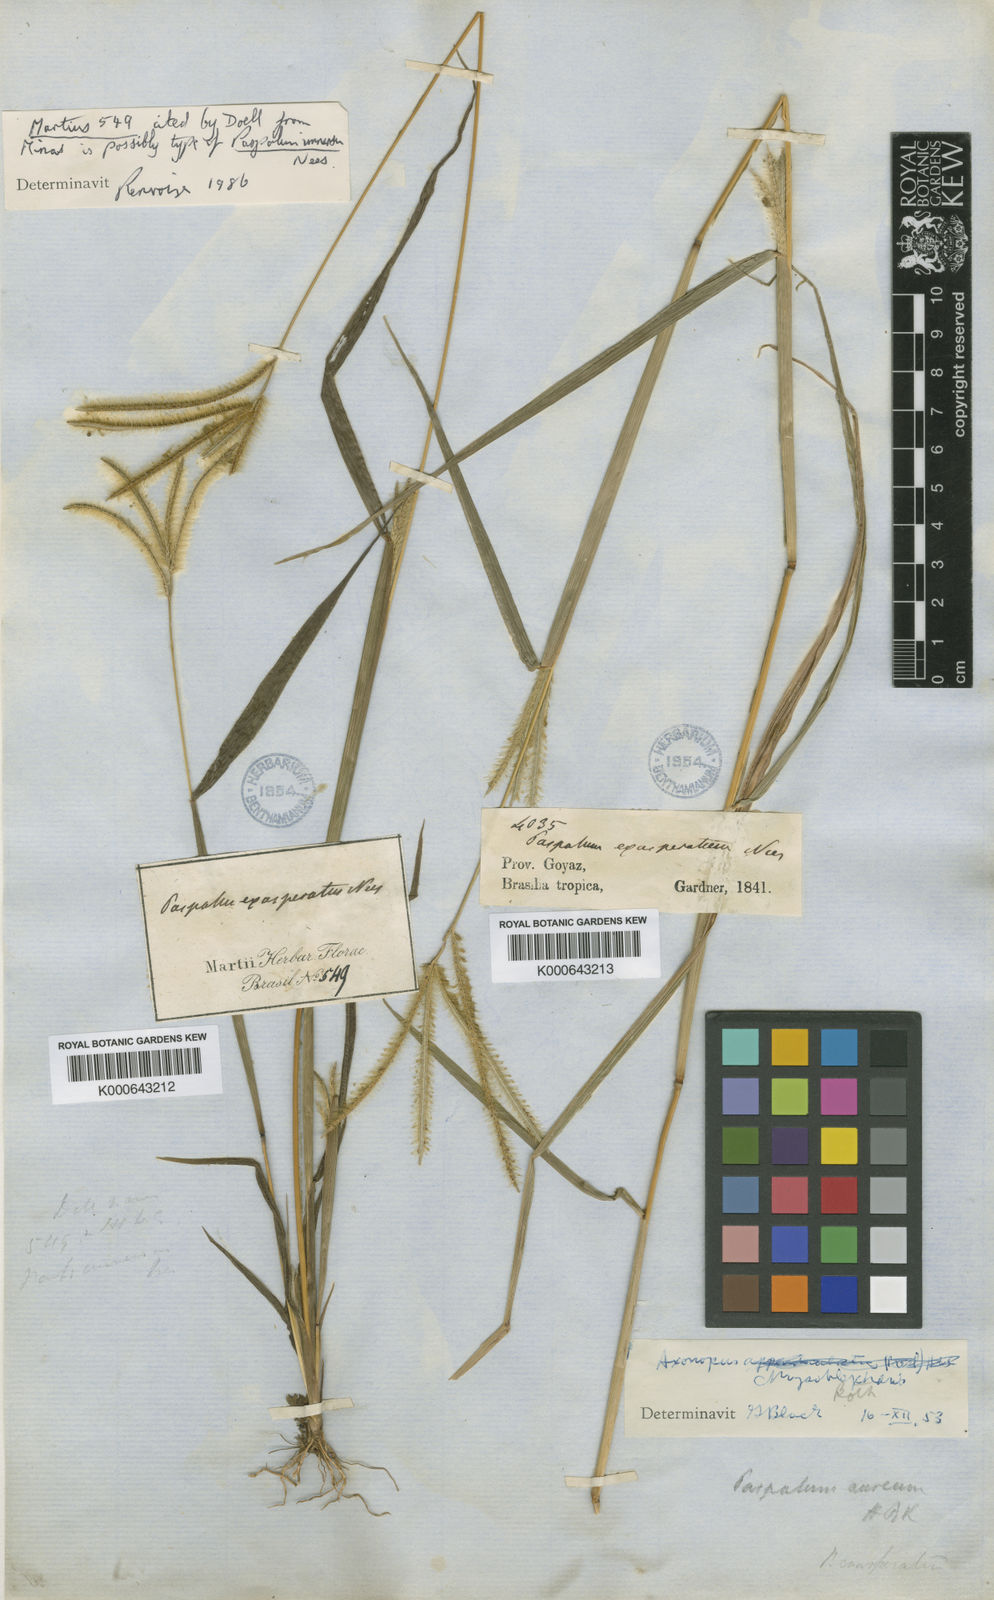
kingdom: Plantae
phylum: Tracheophyta
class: Liliopsida
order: Poales
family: Poaceae
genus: Axonopus
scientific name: Axonopus chrysoblepharis
